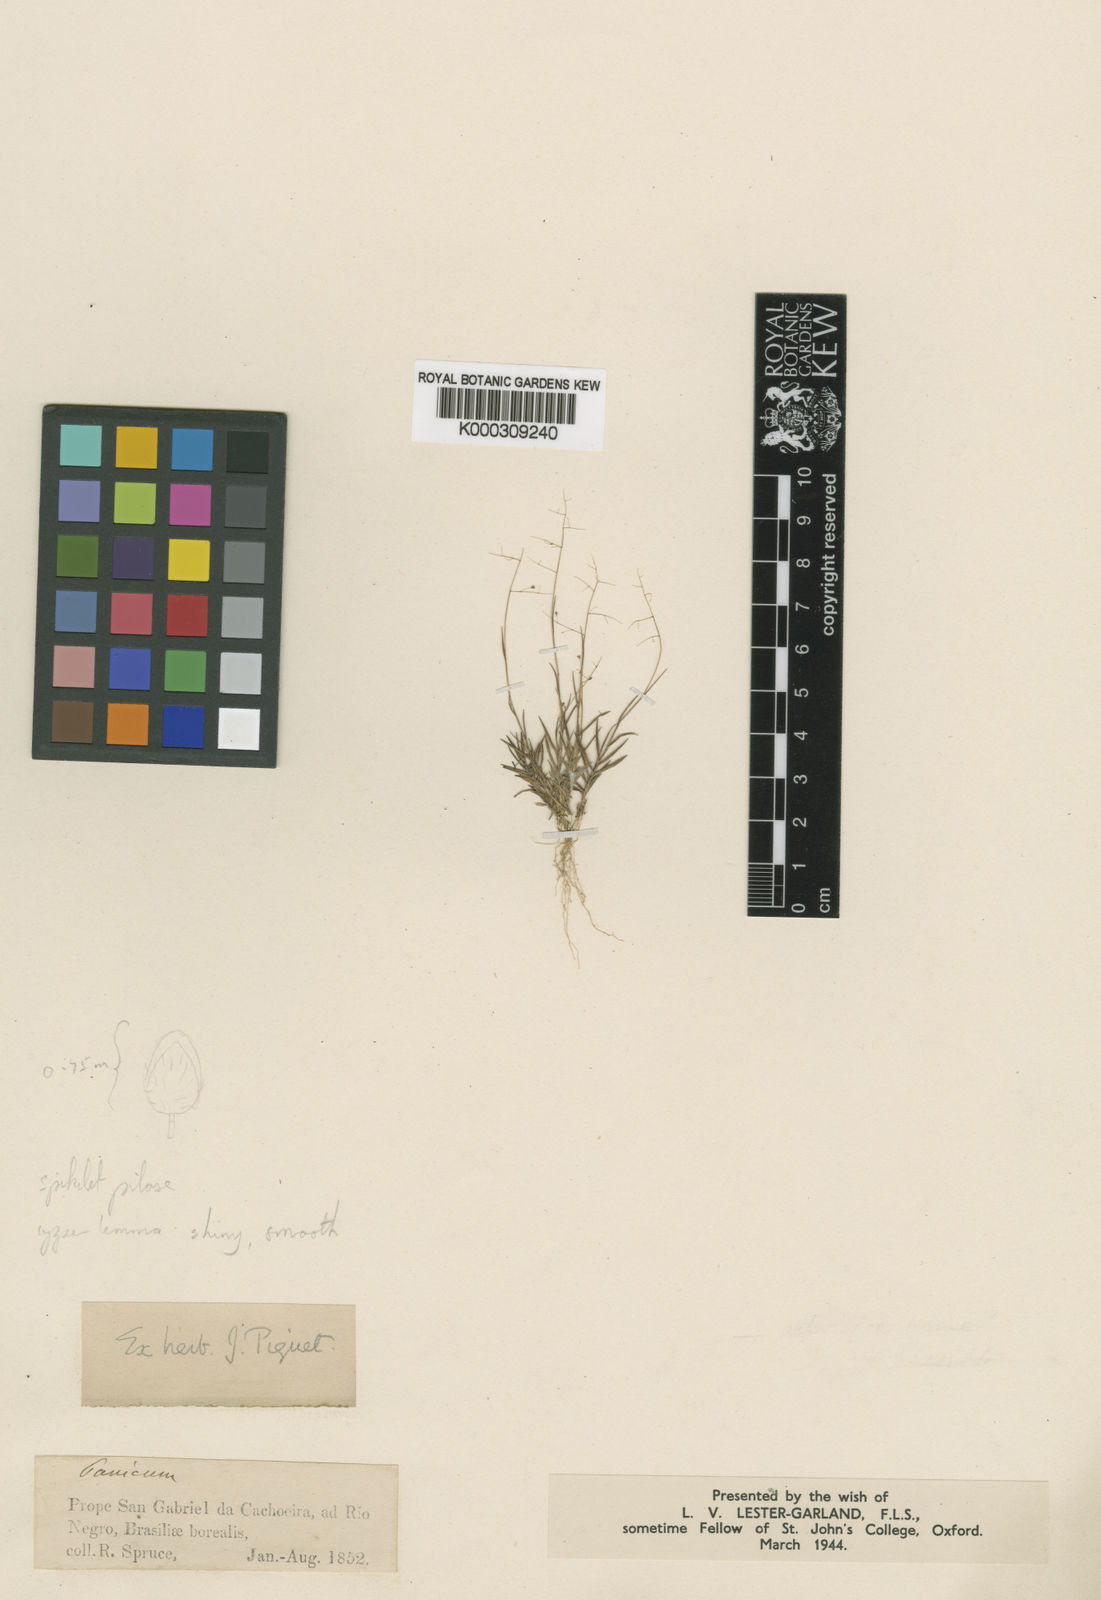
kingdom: Plantae
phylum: Tracheophyta
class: Liliopsida
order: Poales
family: Poaceae
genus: Trichanthecium
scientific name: Trichanthecium polycomum
